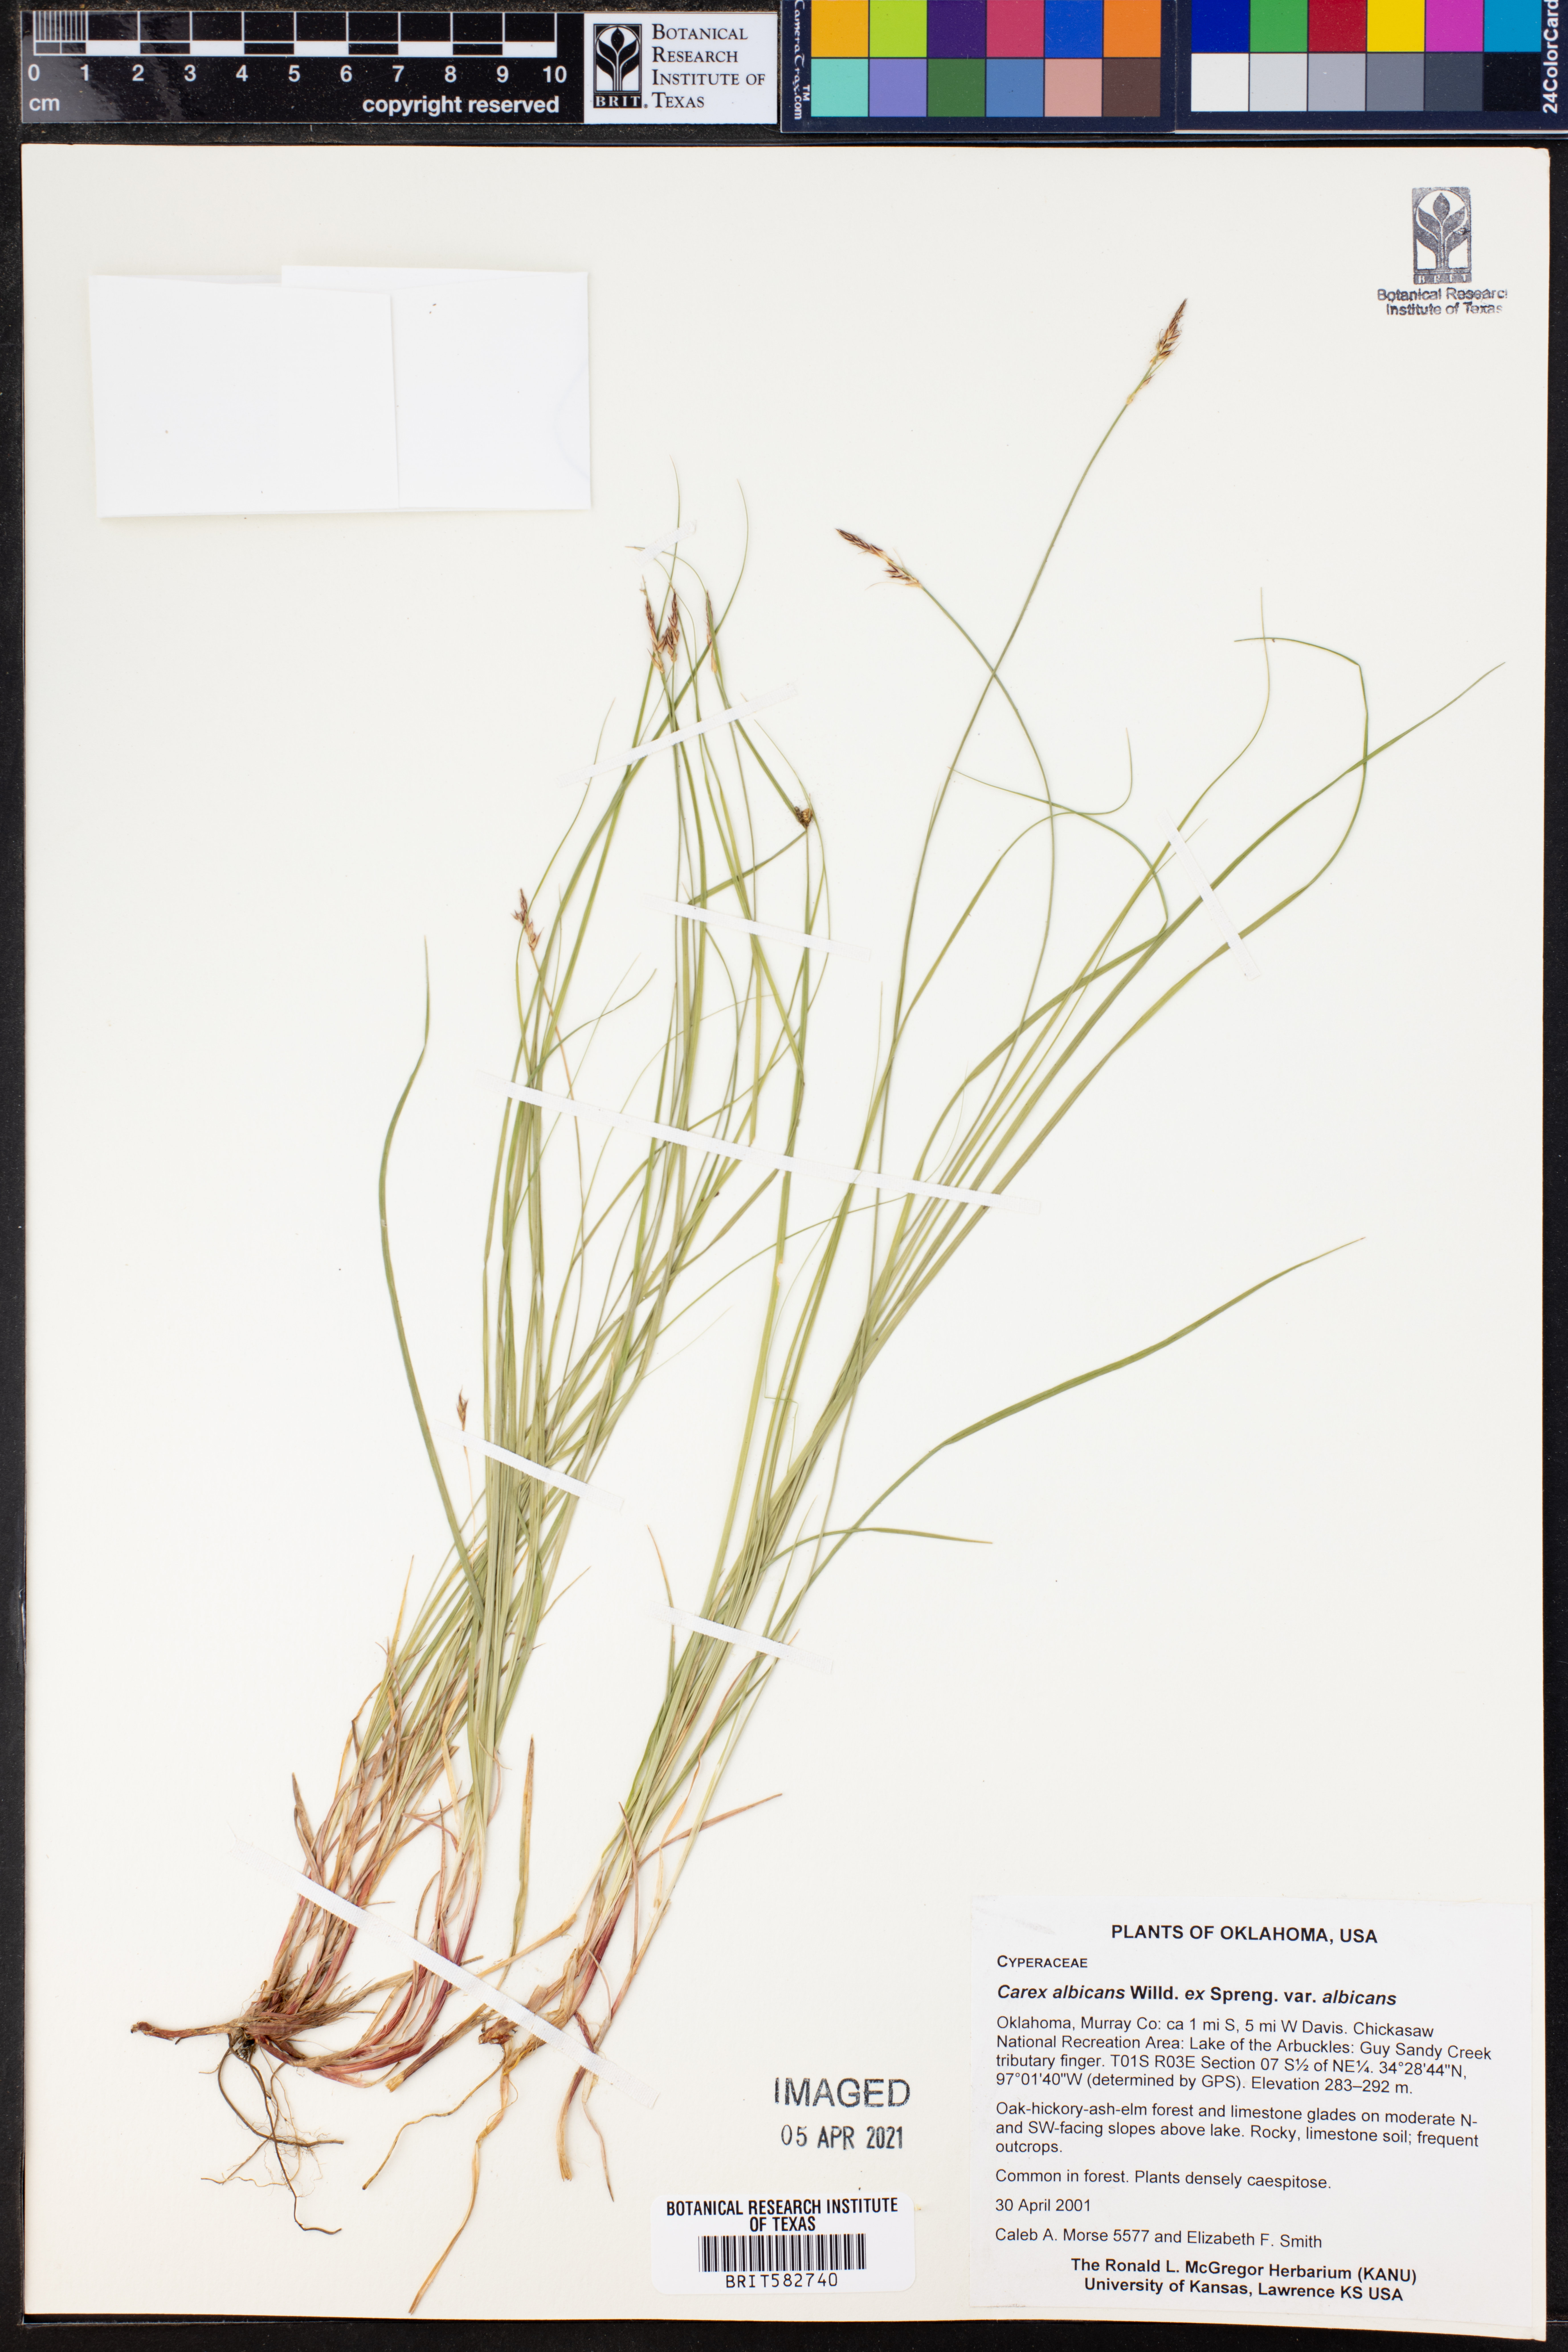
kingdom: Plantae
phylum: Tracheophyta
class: Liliopsida
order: Poales
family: Cyperaceae
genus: Carex
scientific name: Carex albicans
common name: Bellow-beaked sedge
